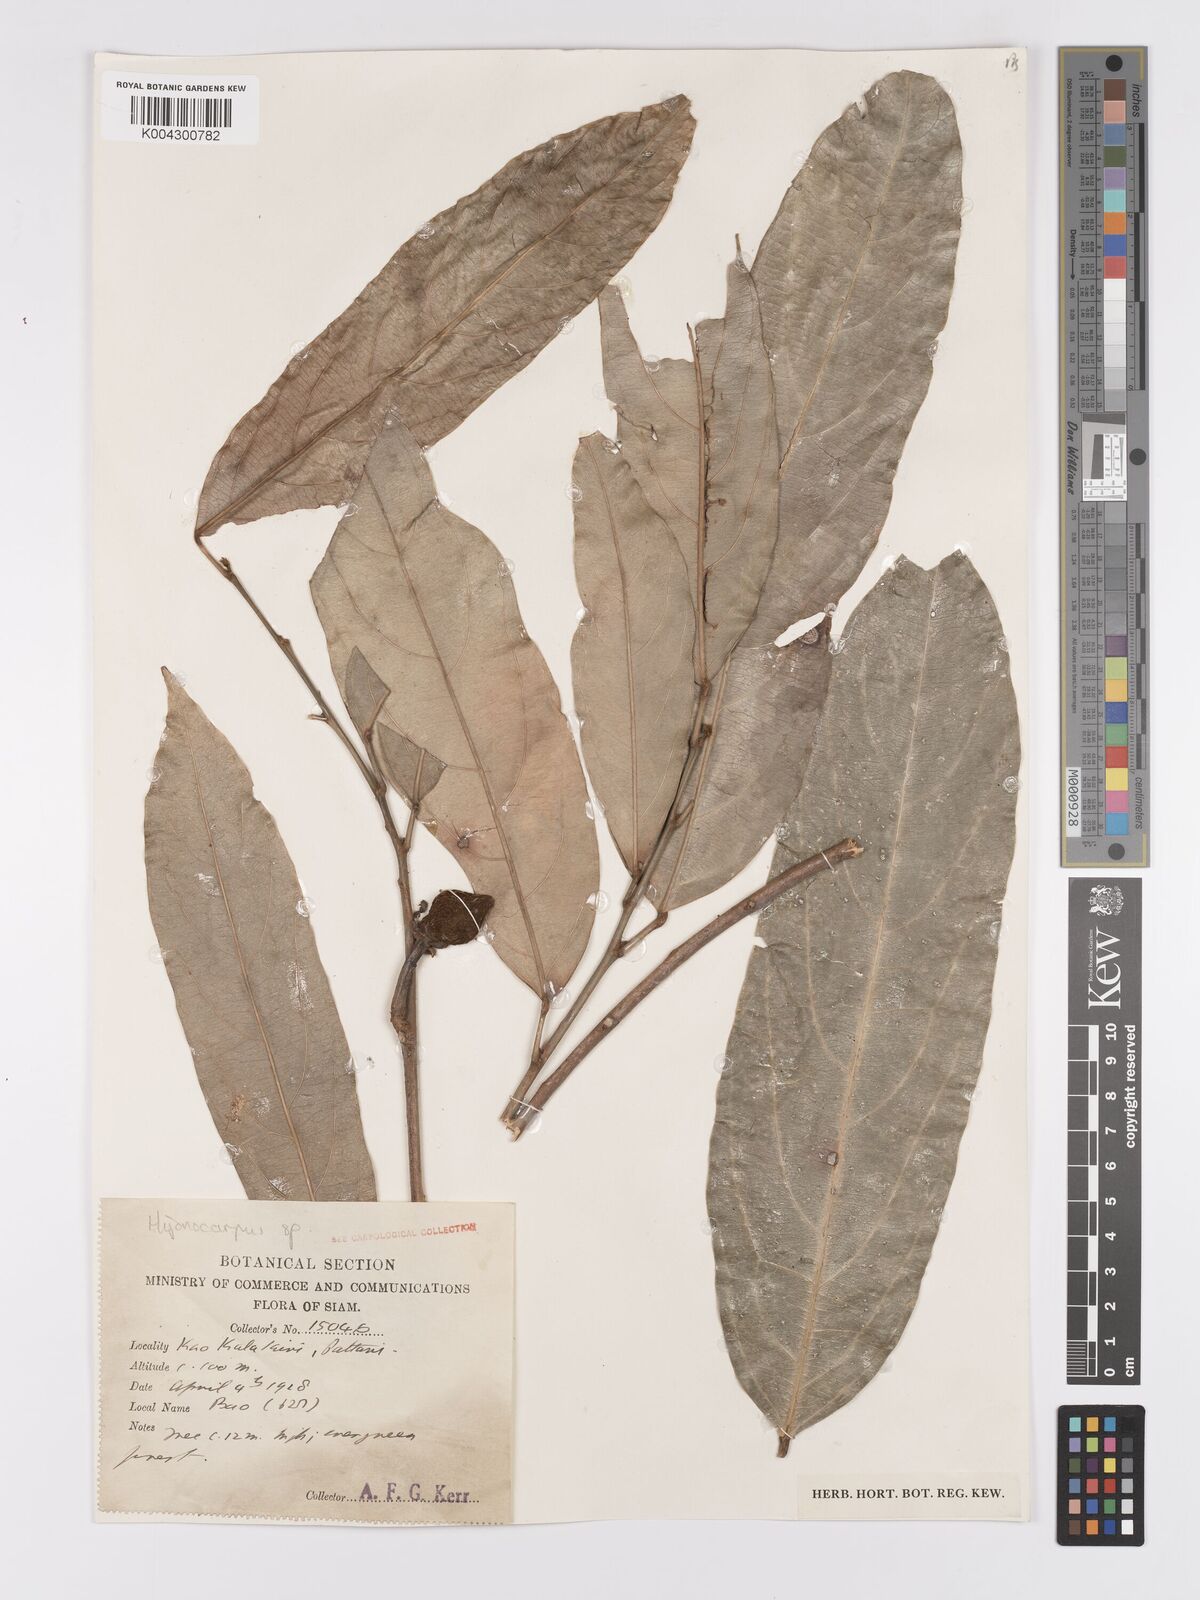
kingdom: Plantae
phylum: Tracheophyta
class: Magnoliopsida
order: Malpighiales
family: Achariaceae
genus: Hydnocarpus
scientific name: Hydnocarpus
